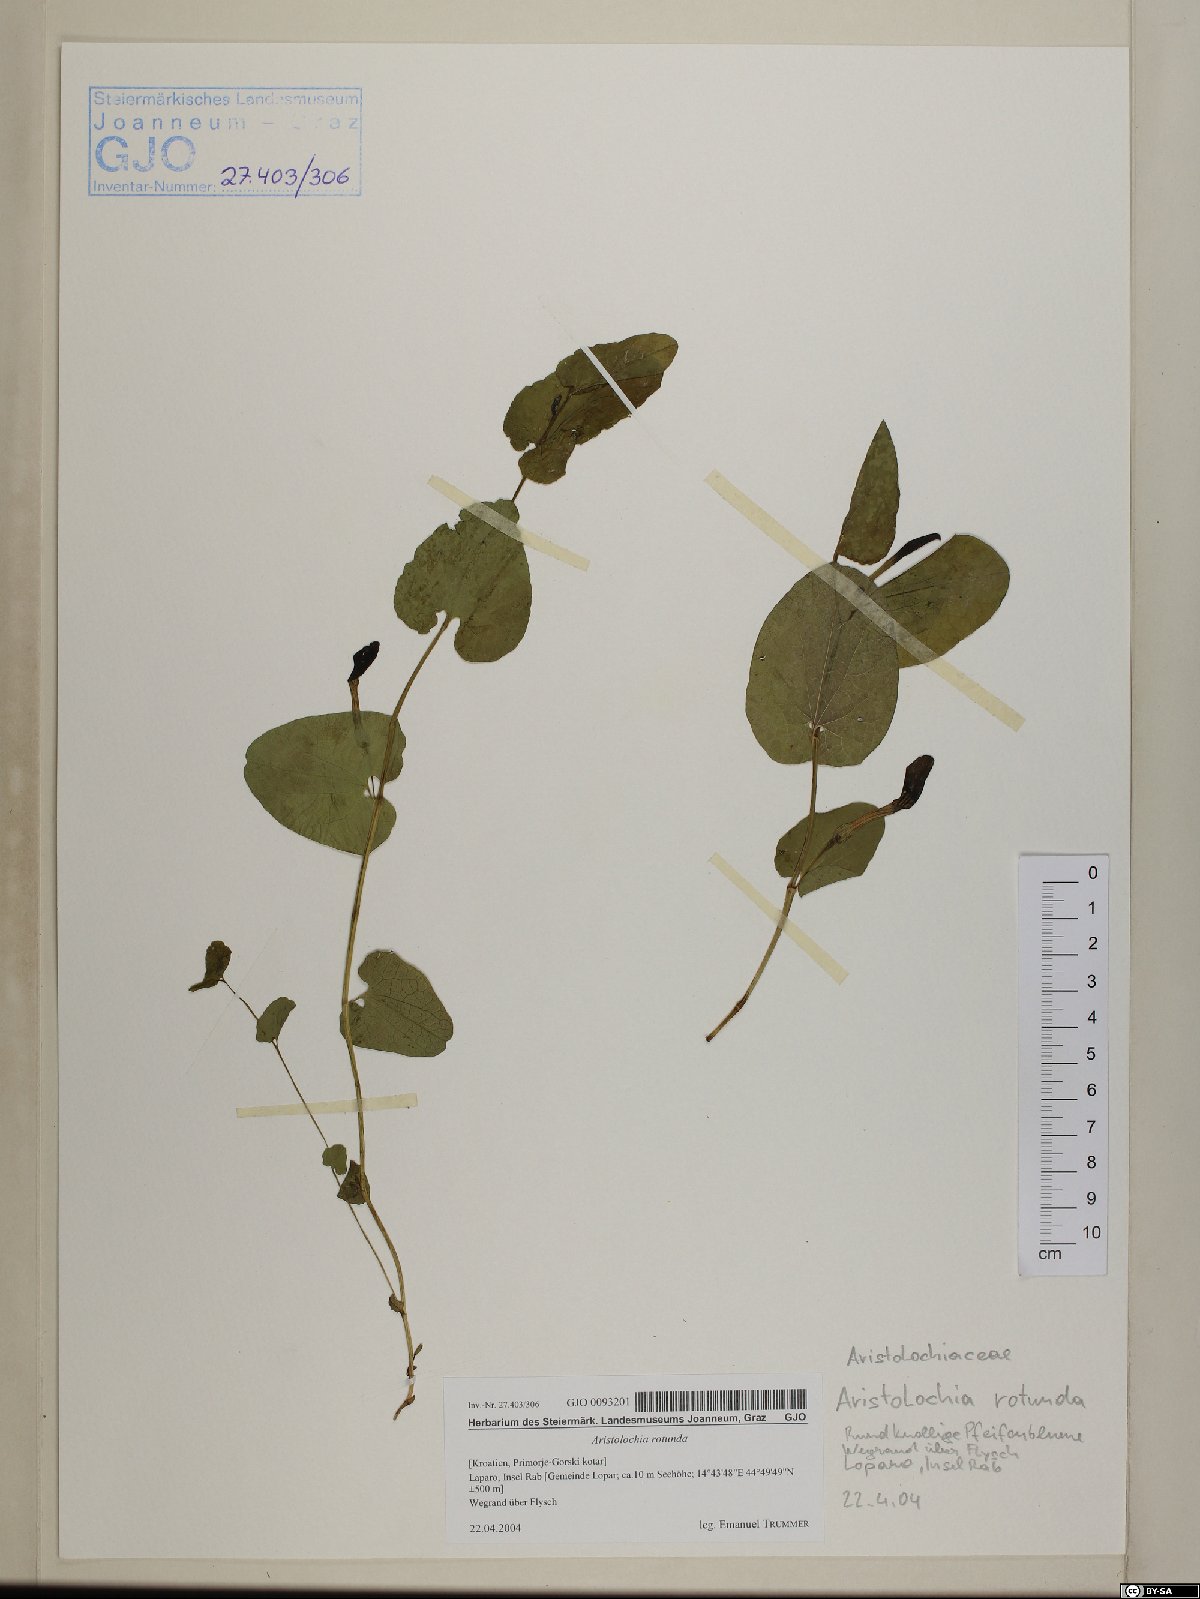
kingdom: Plantae
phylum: Tracheophyta
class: Magnoliopsida
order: Piperales
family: Aristolochiaceae
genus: Aristolochia
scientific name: Aristolochia rotunda
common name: Smearwort
